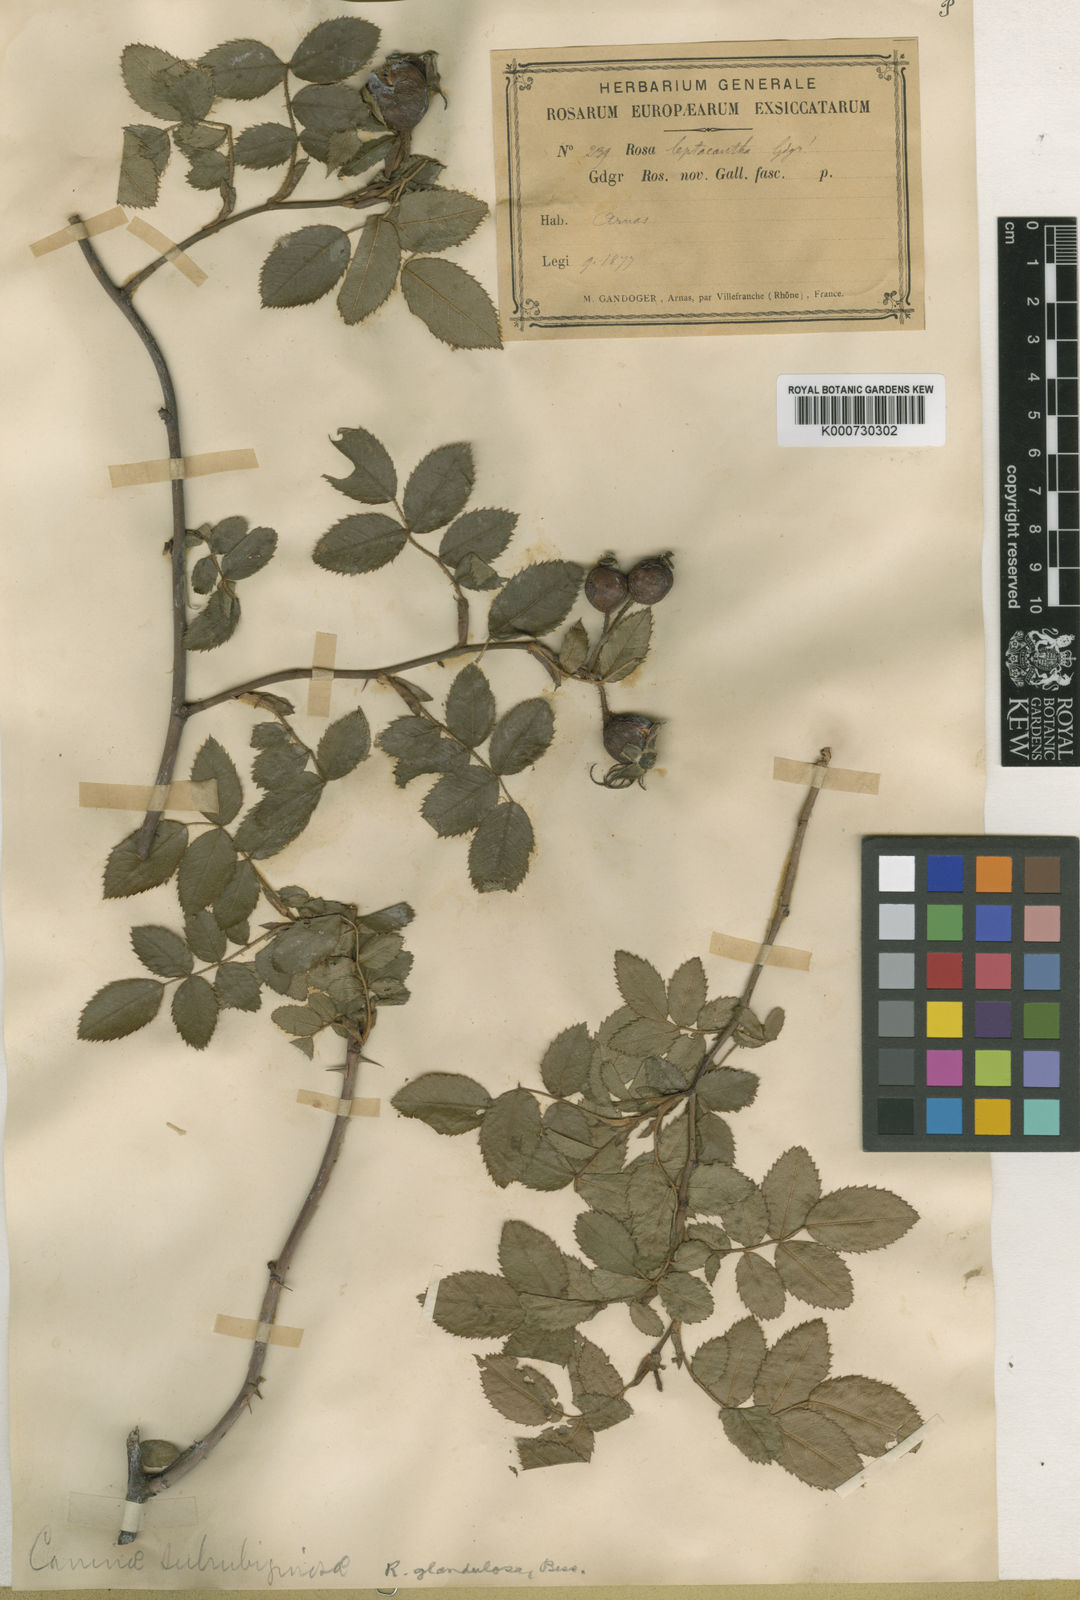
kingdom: Plantae
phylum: Tracheophyta
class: Magnoliopsida
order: Rosales
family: Rosaceae
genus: Rosa
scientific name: Rosa marginata
